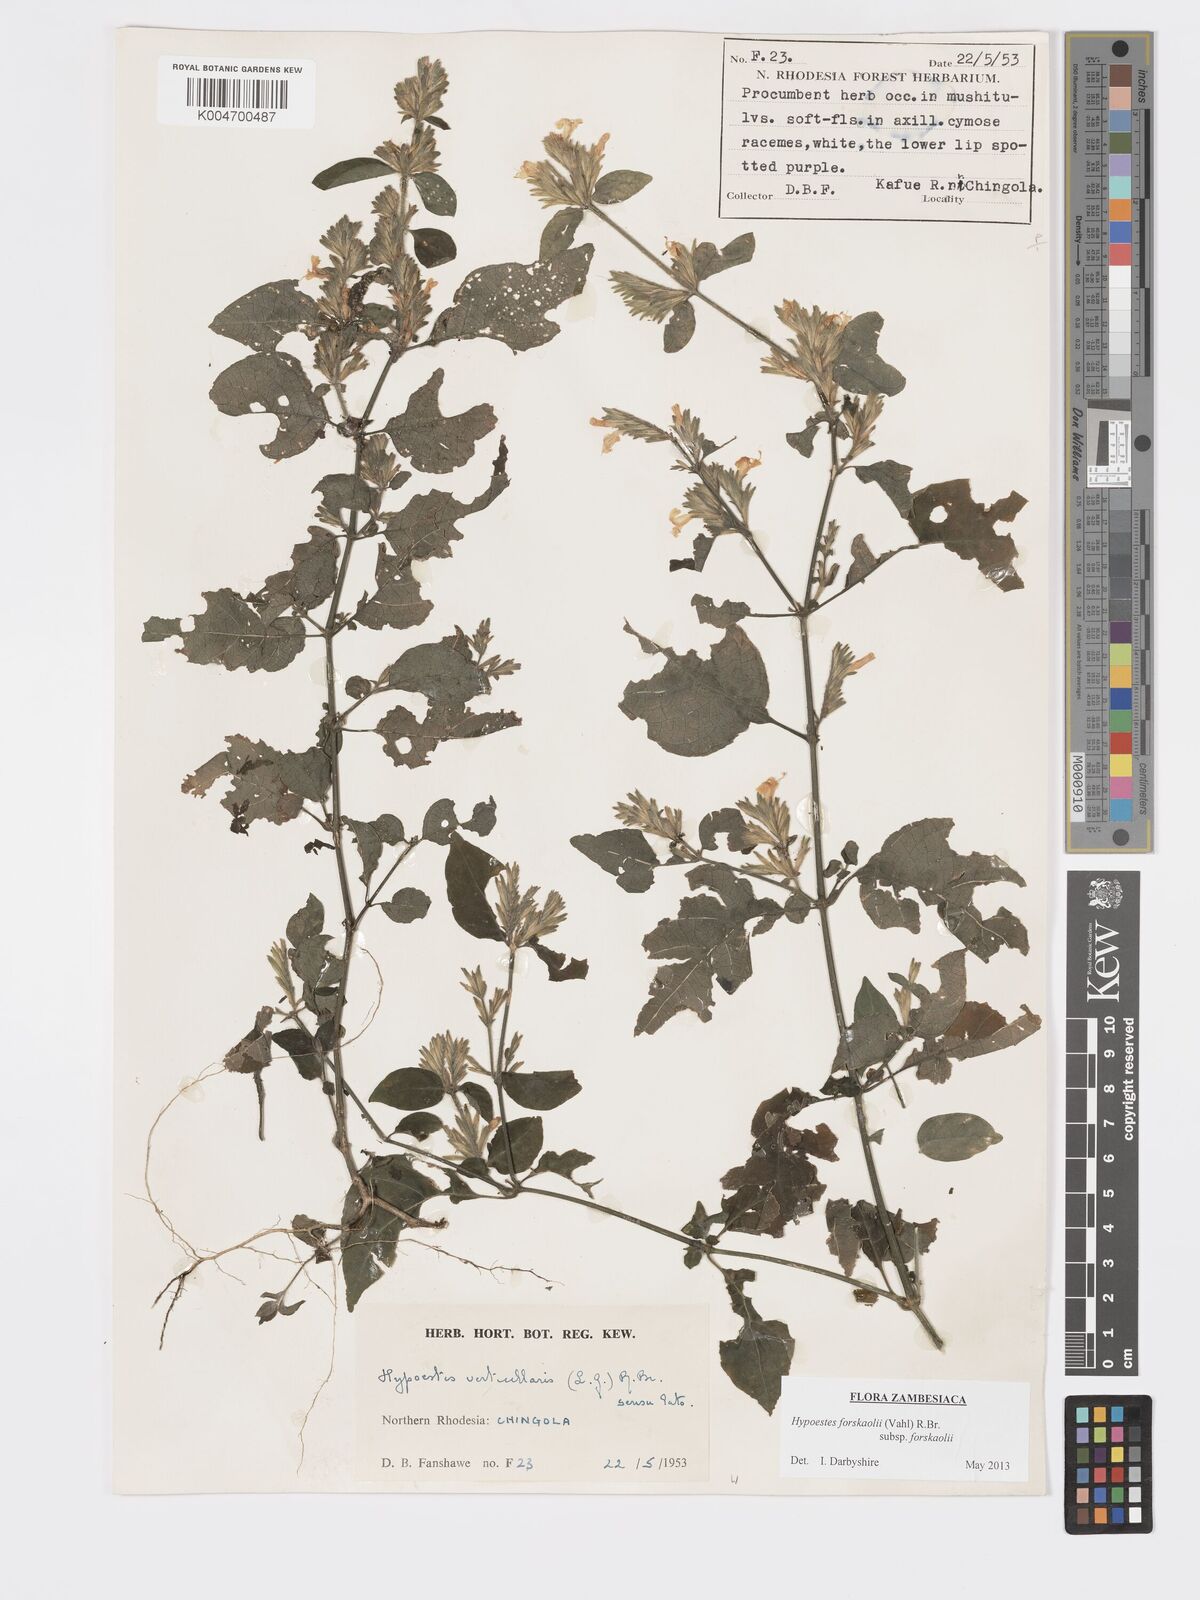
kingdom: Plantae
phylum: Tracheophyta
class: Magnoliopsida
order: Lamiales
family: Acanthaceae
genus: Hypoestes
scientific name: Hypoestes forskaolii
